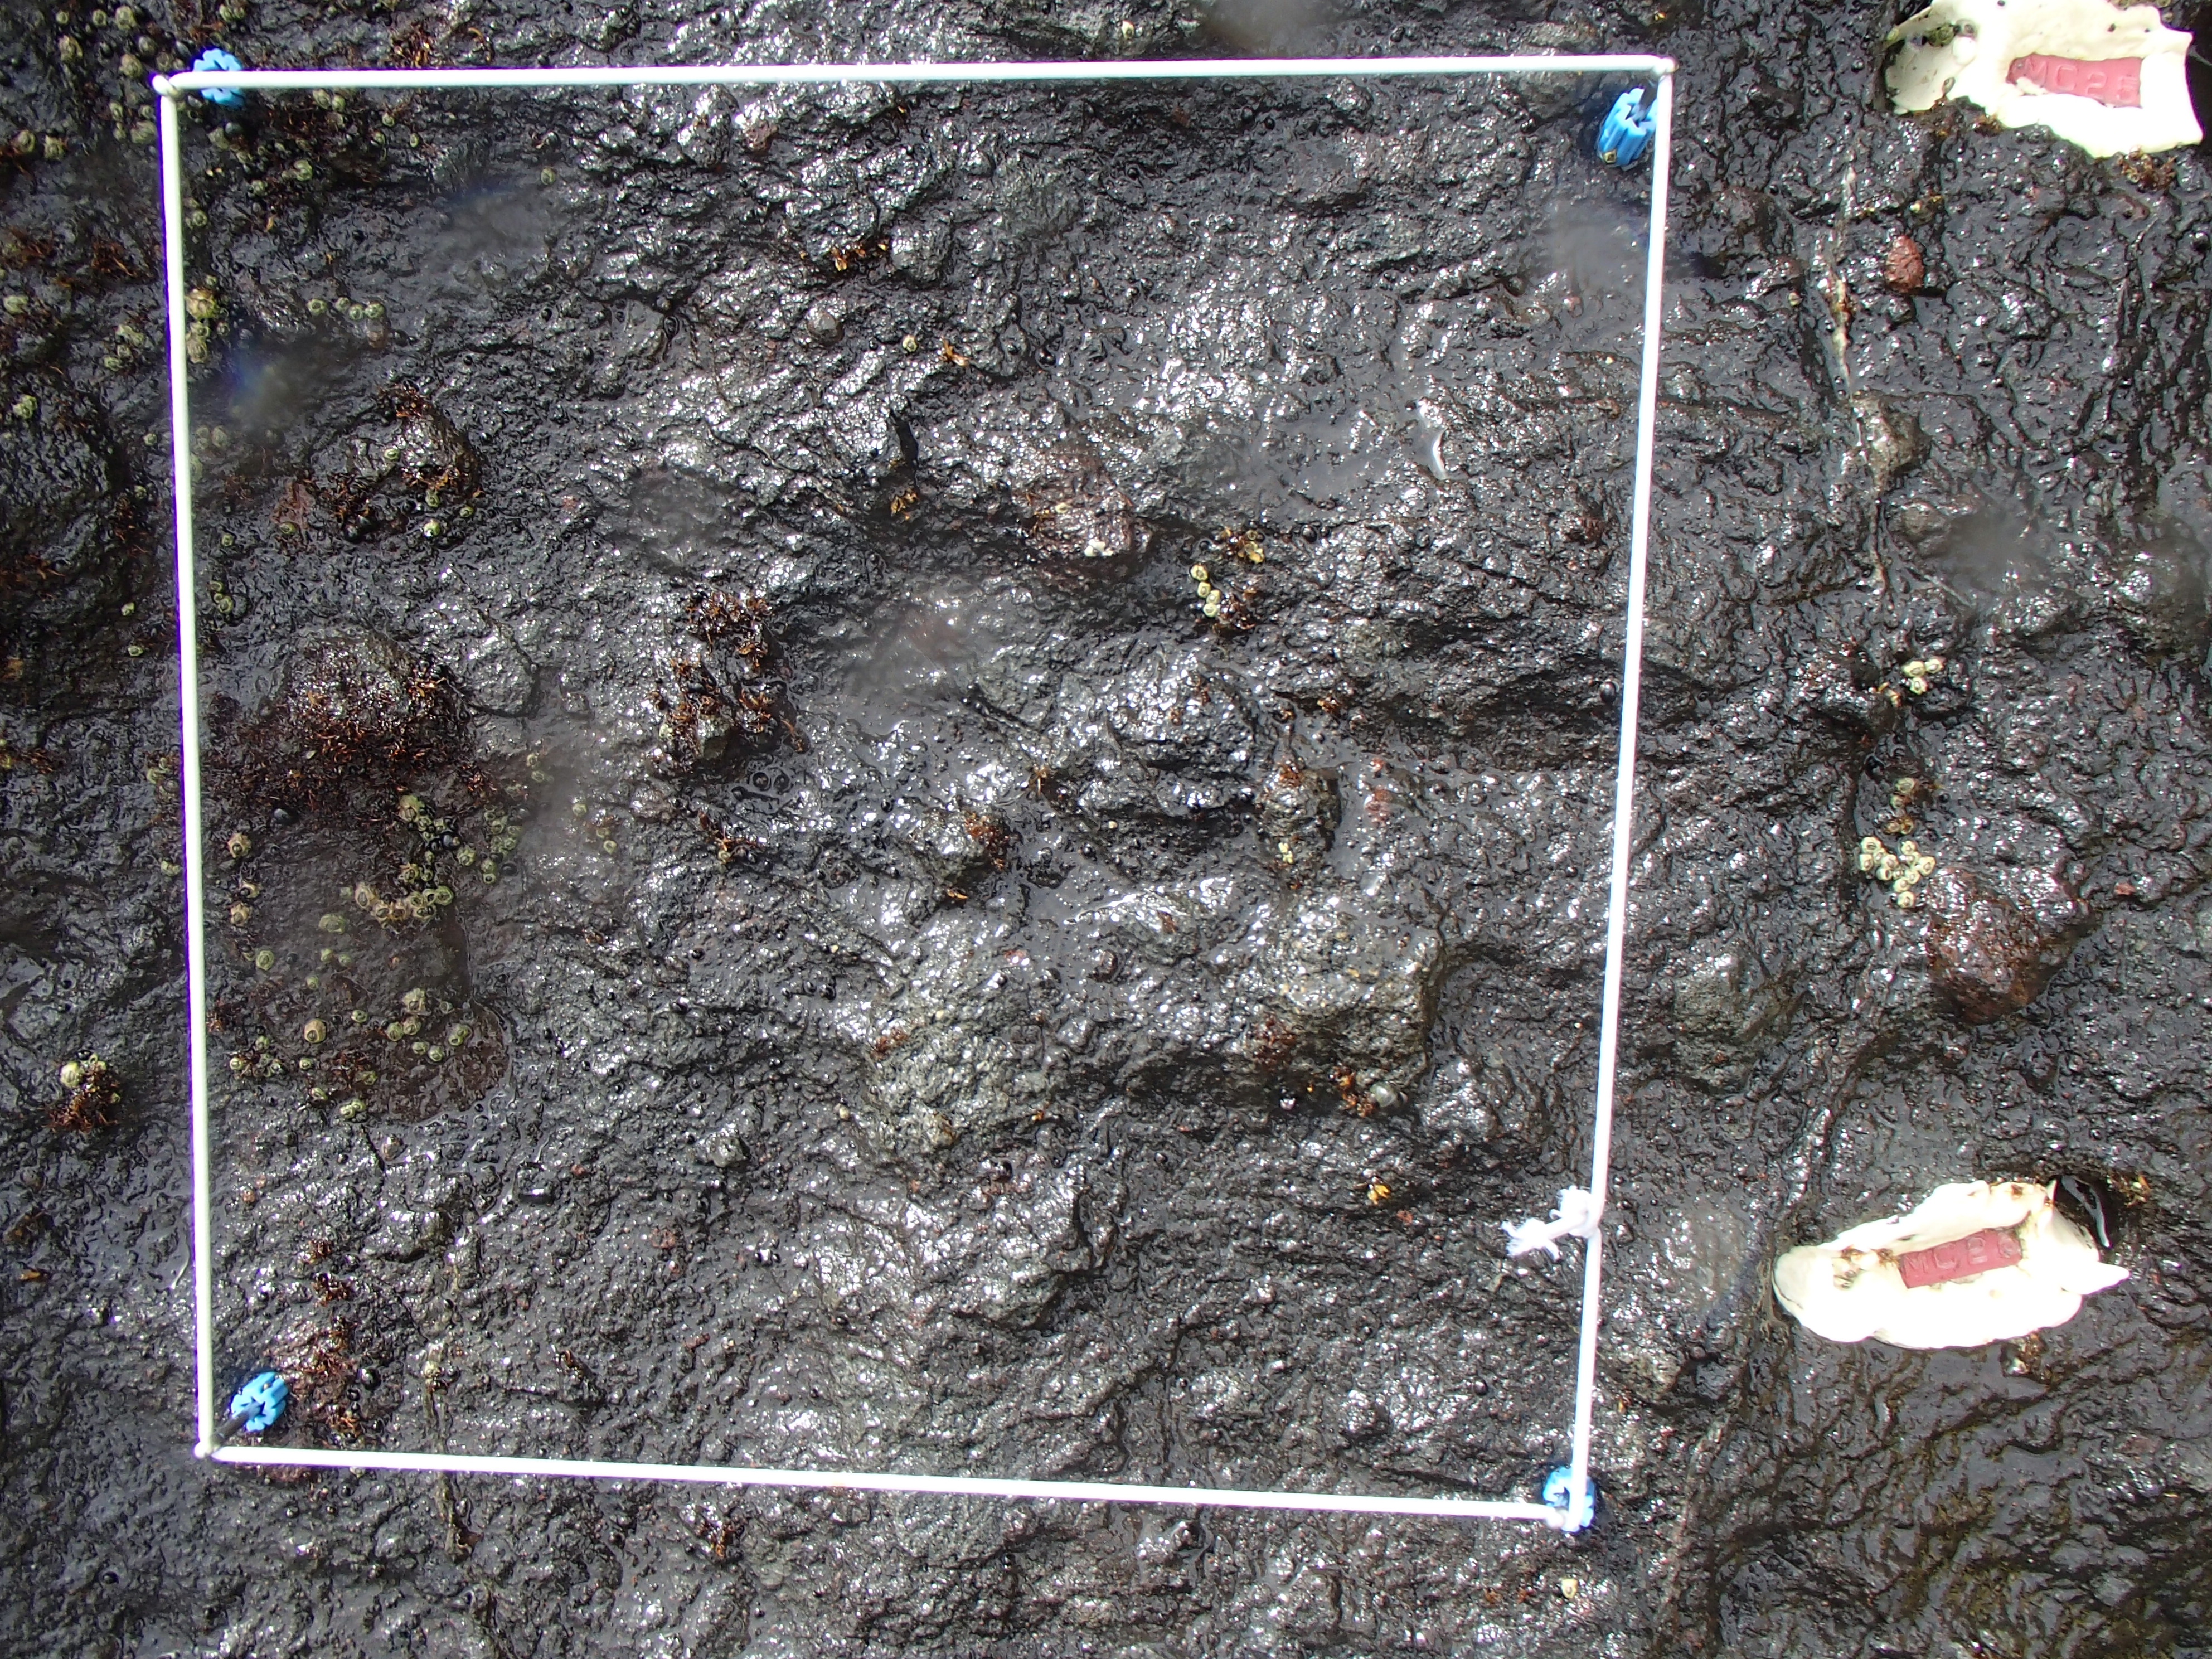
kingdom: Animalia
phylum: Arthropoda
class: Maxillopoda
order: Sessilia
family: Chthamalidae
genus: Chthamalus
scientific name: Chthamalus dalli
